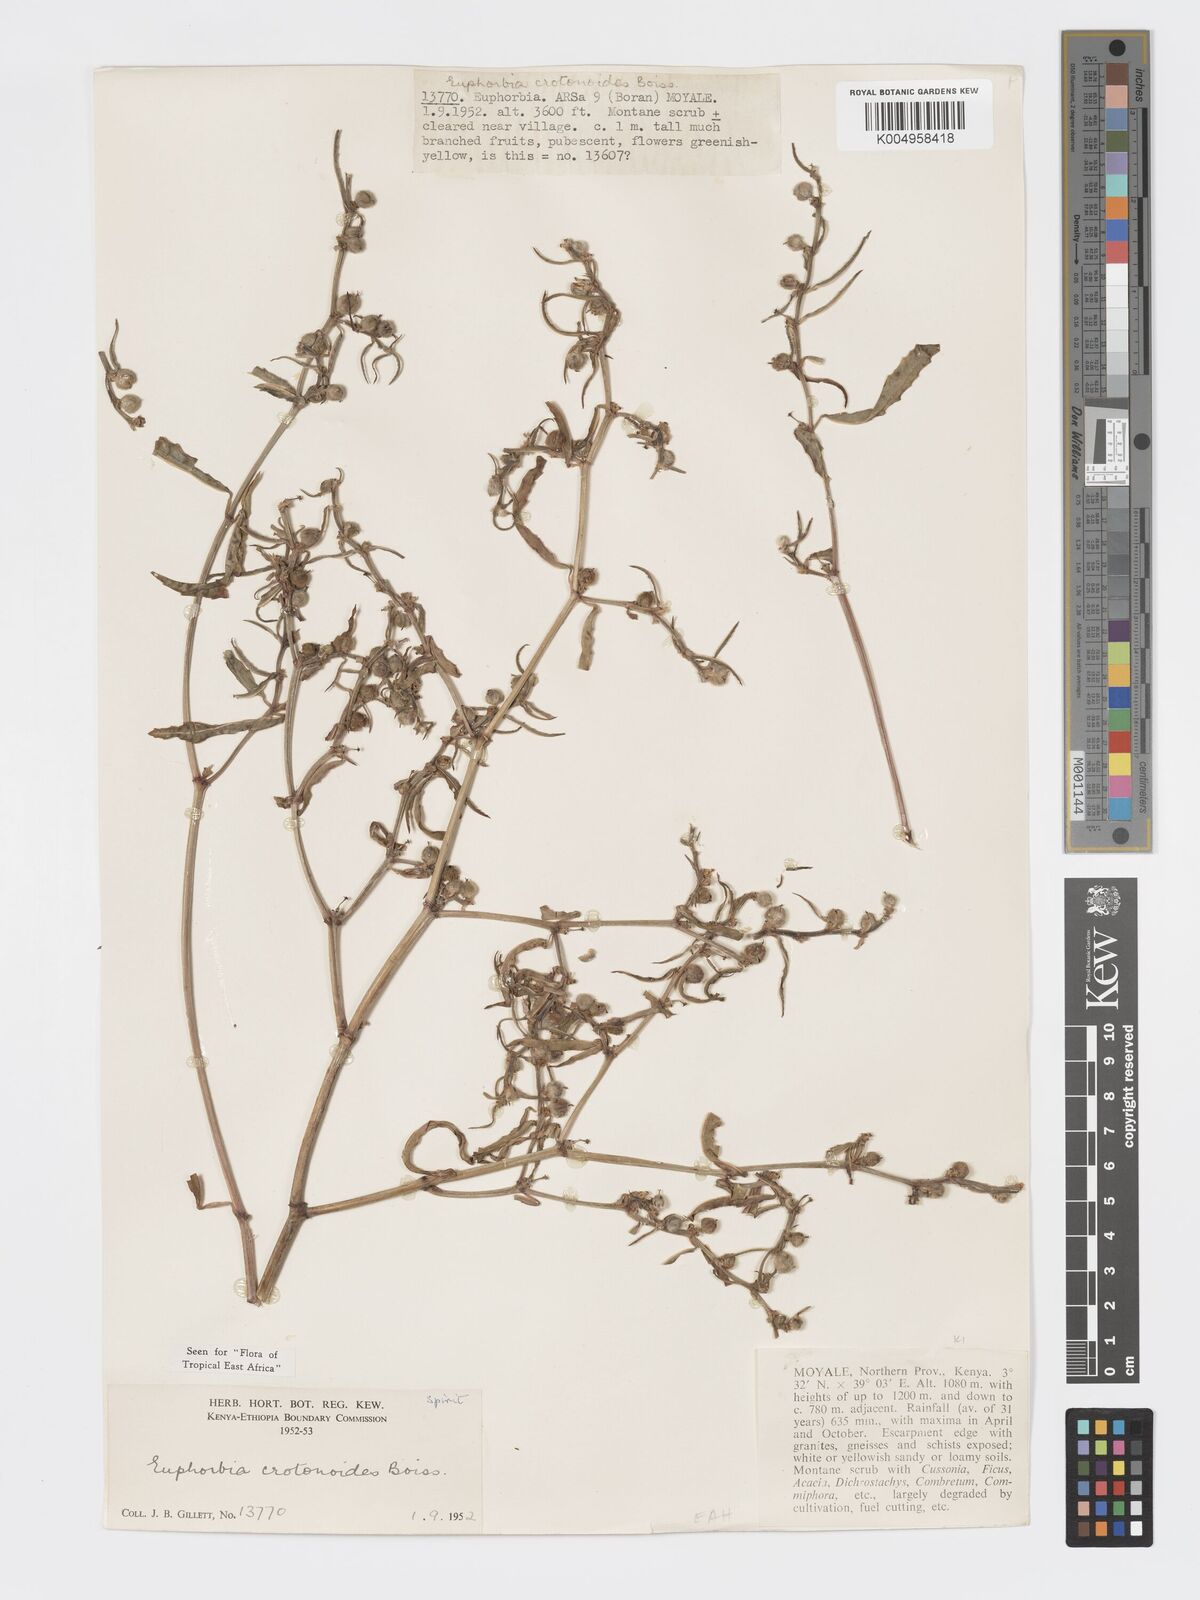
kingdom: Plantae
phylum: Tracheophyta
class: Magnoliopsida
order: Malpighiales
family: Euphorbiaceae
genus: Euphorbia
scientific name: Euphorbia crotonoides
